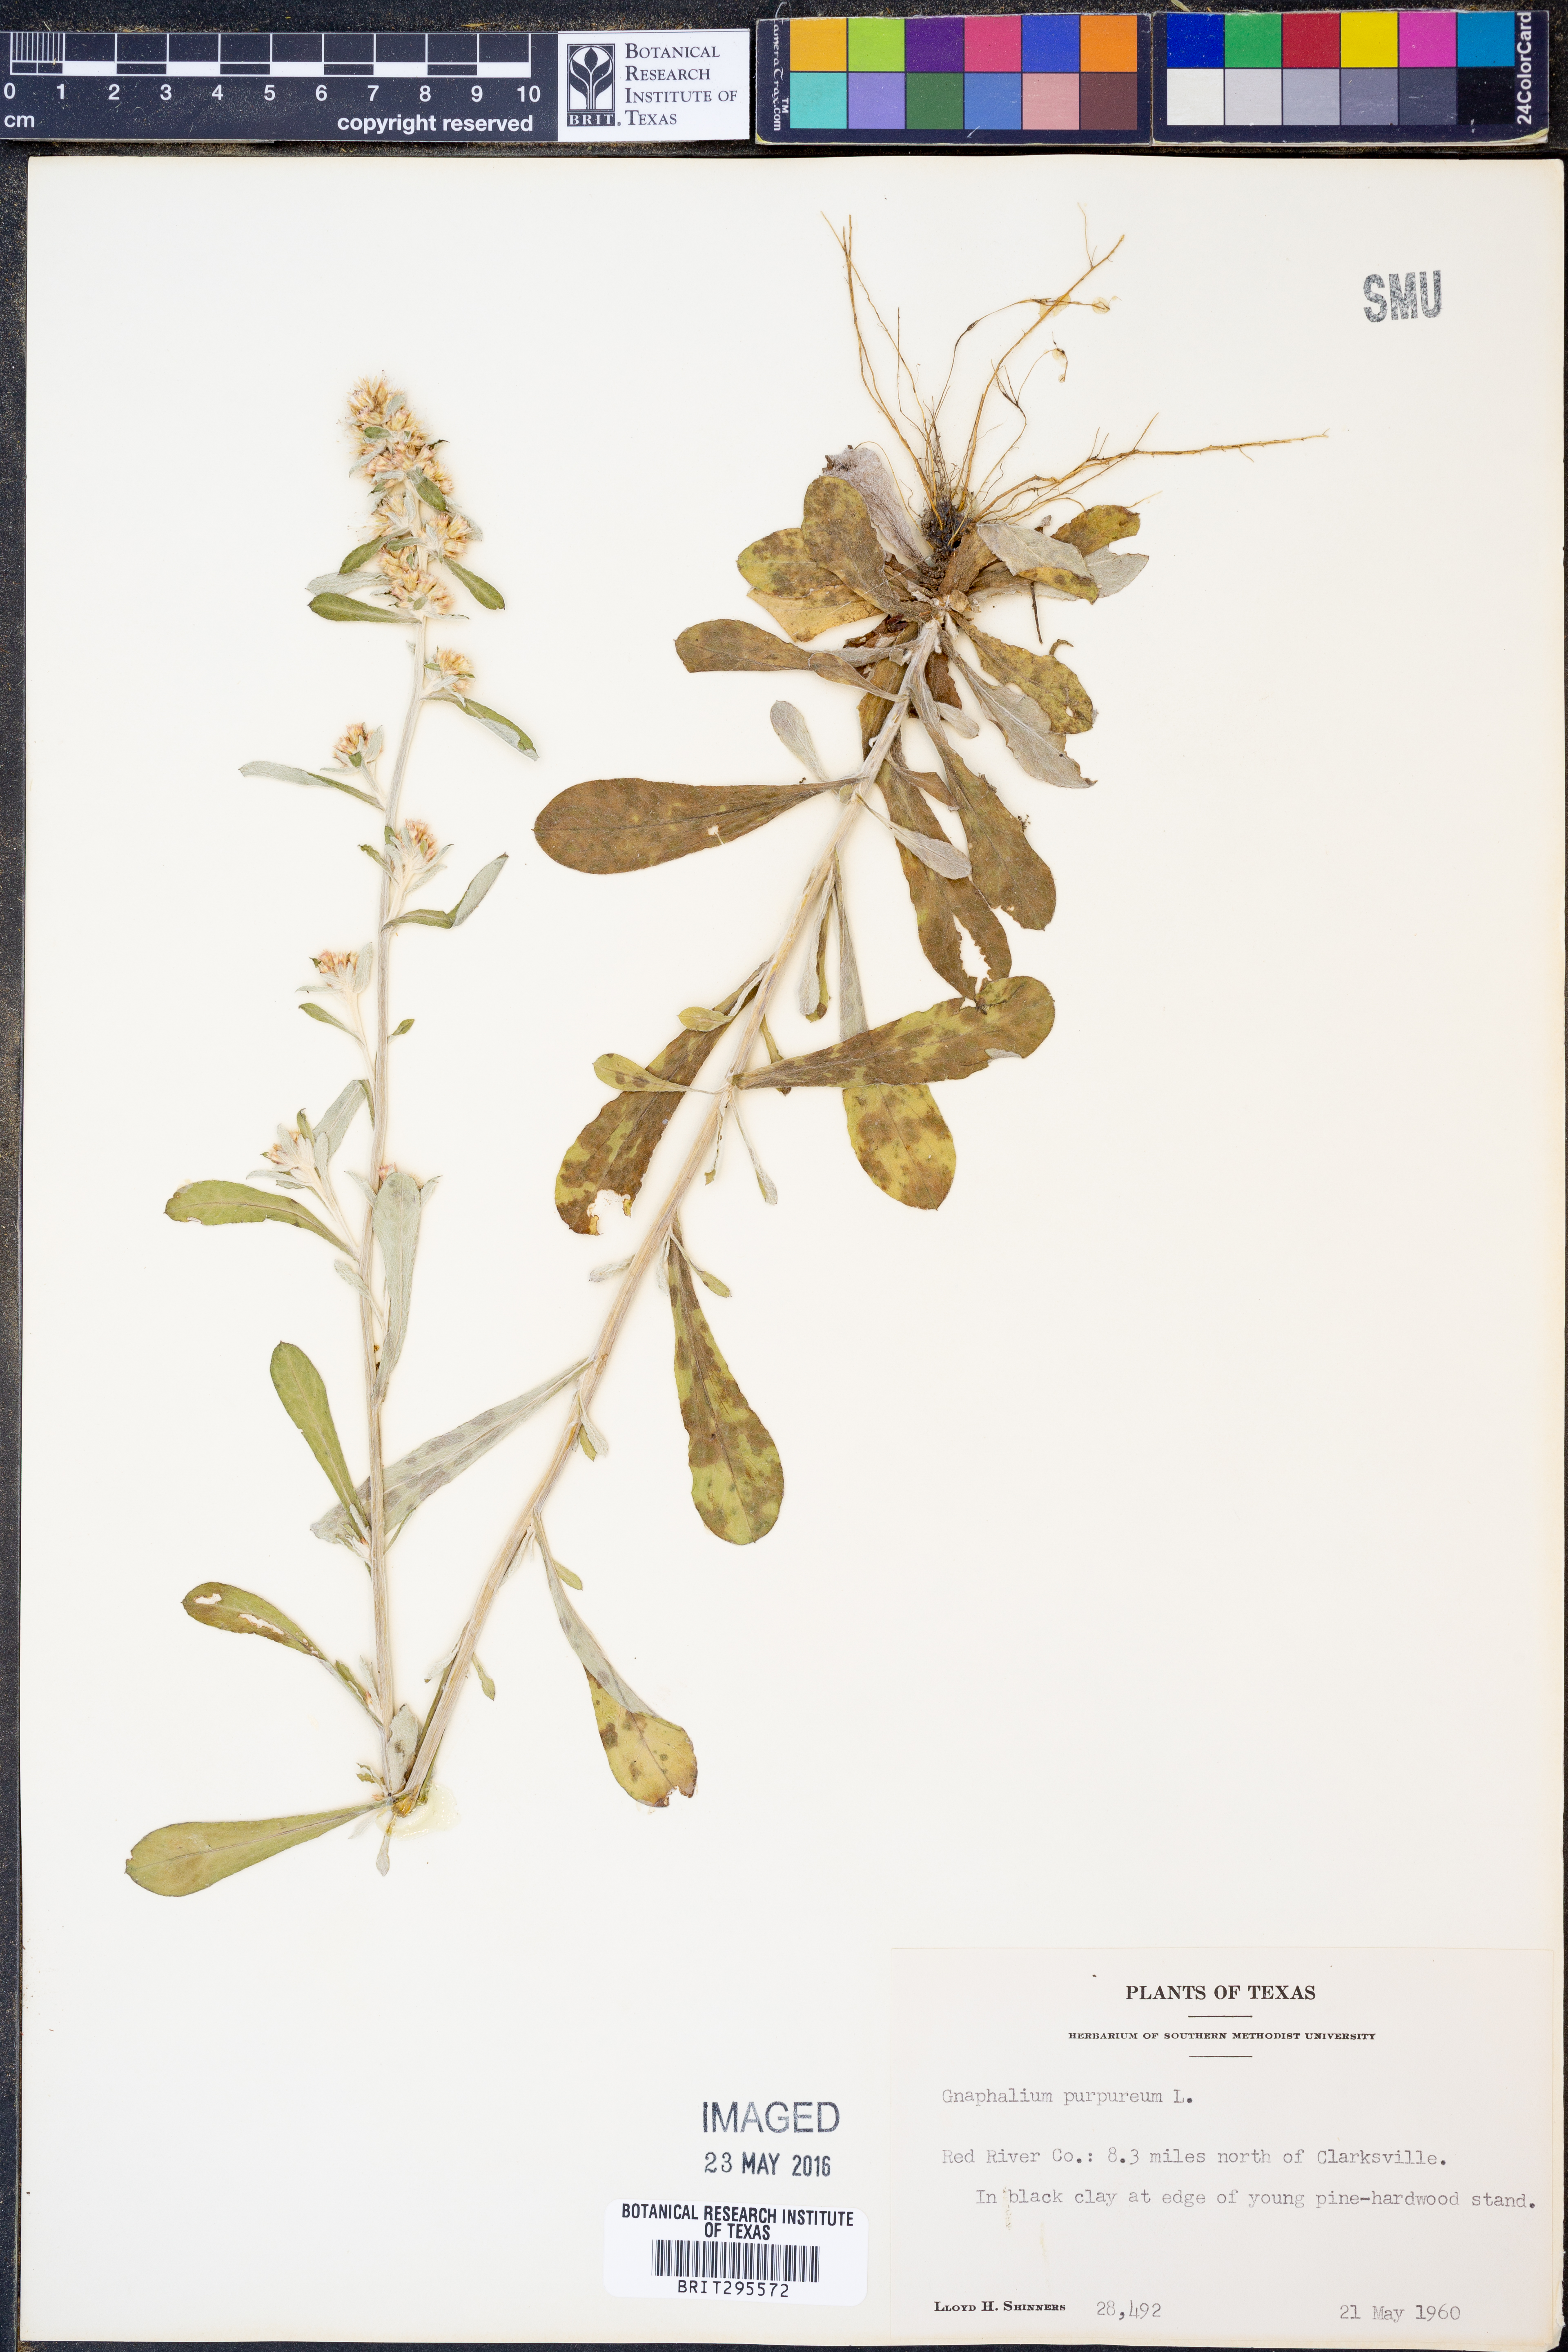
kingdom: Plantae
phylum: Tracheophyta
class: Magnoliopsida
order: Asterales
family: Asteraceae
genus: Gamochaeta
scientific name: Gamochaeta purpurea
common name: Purple cudweed
